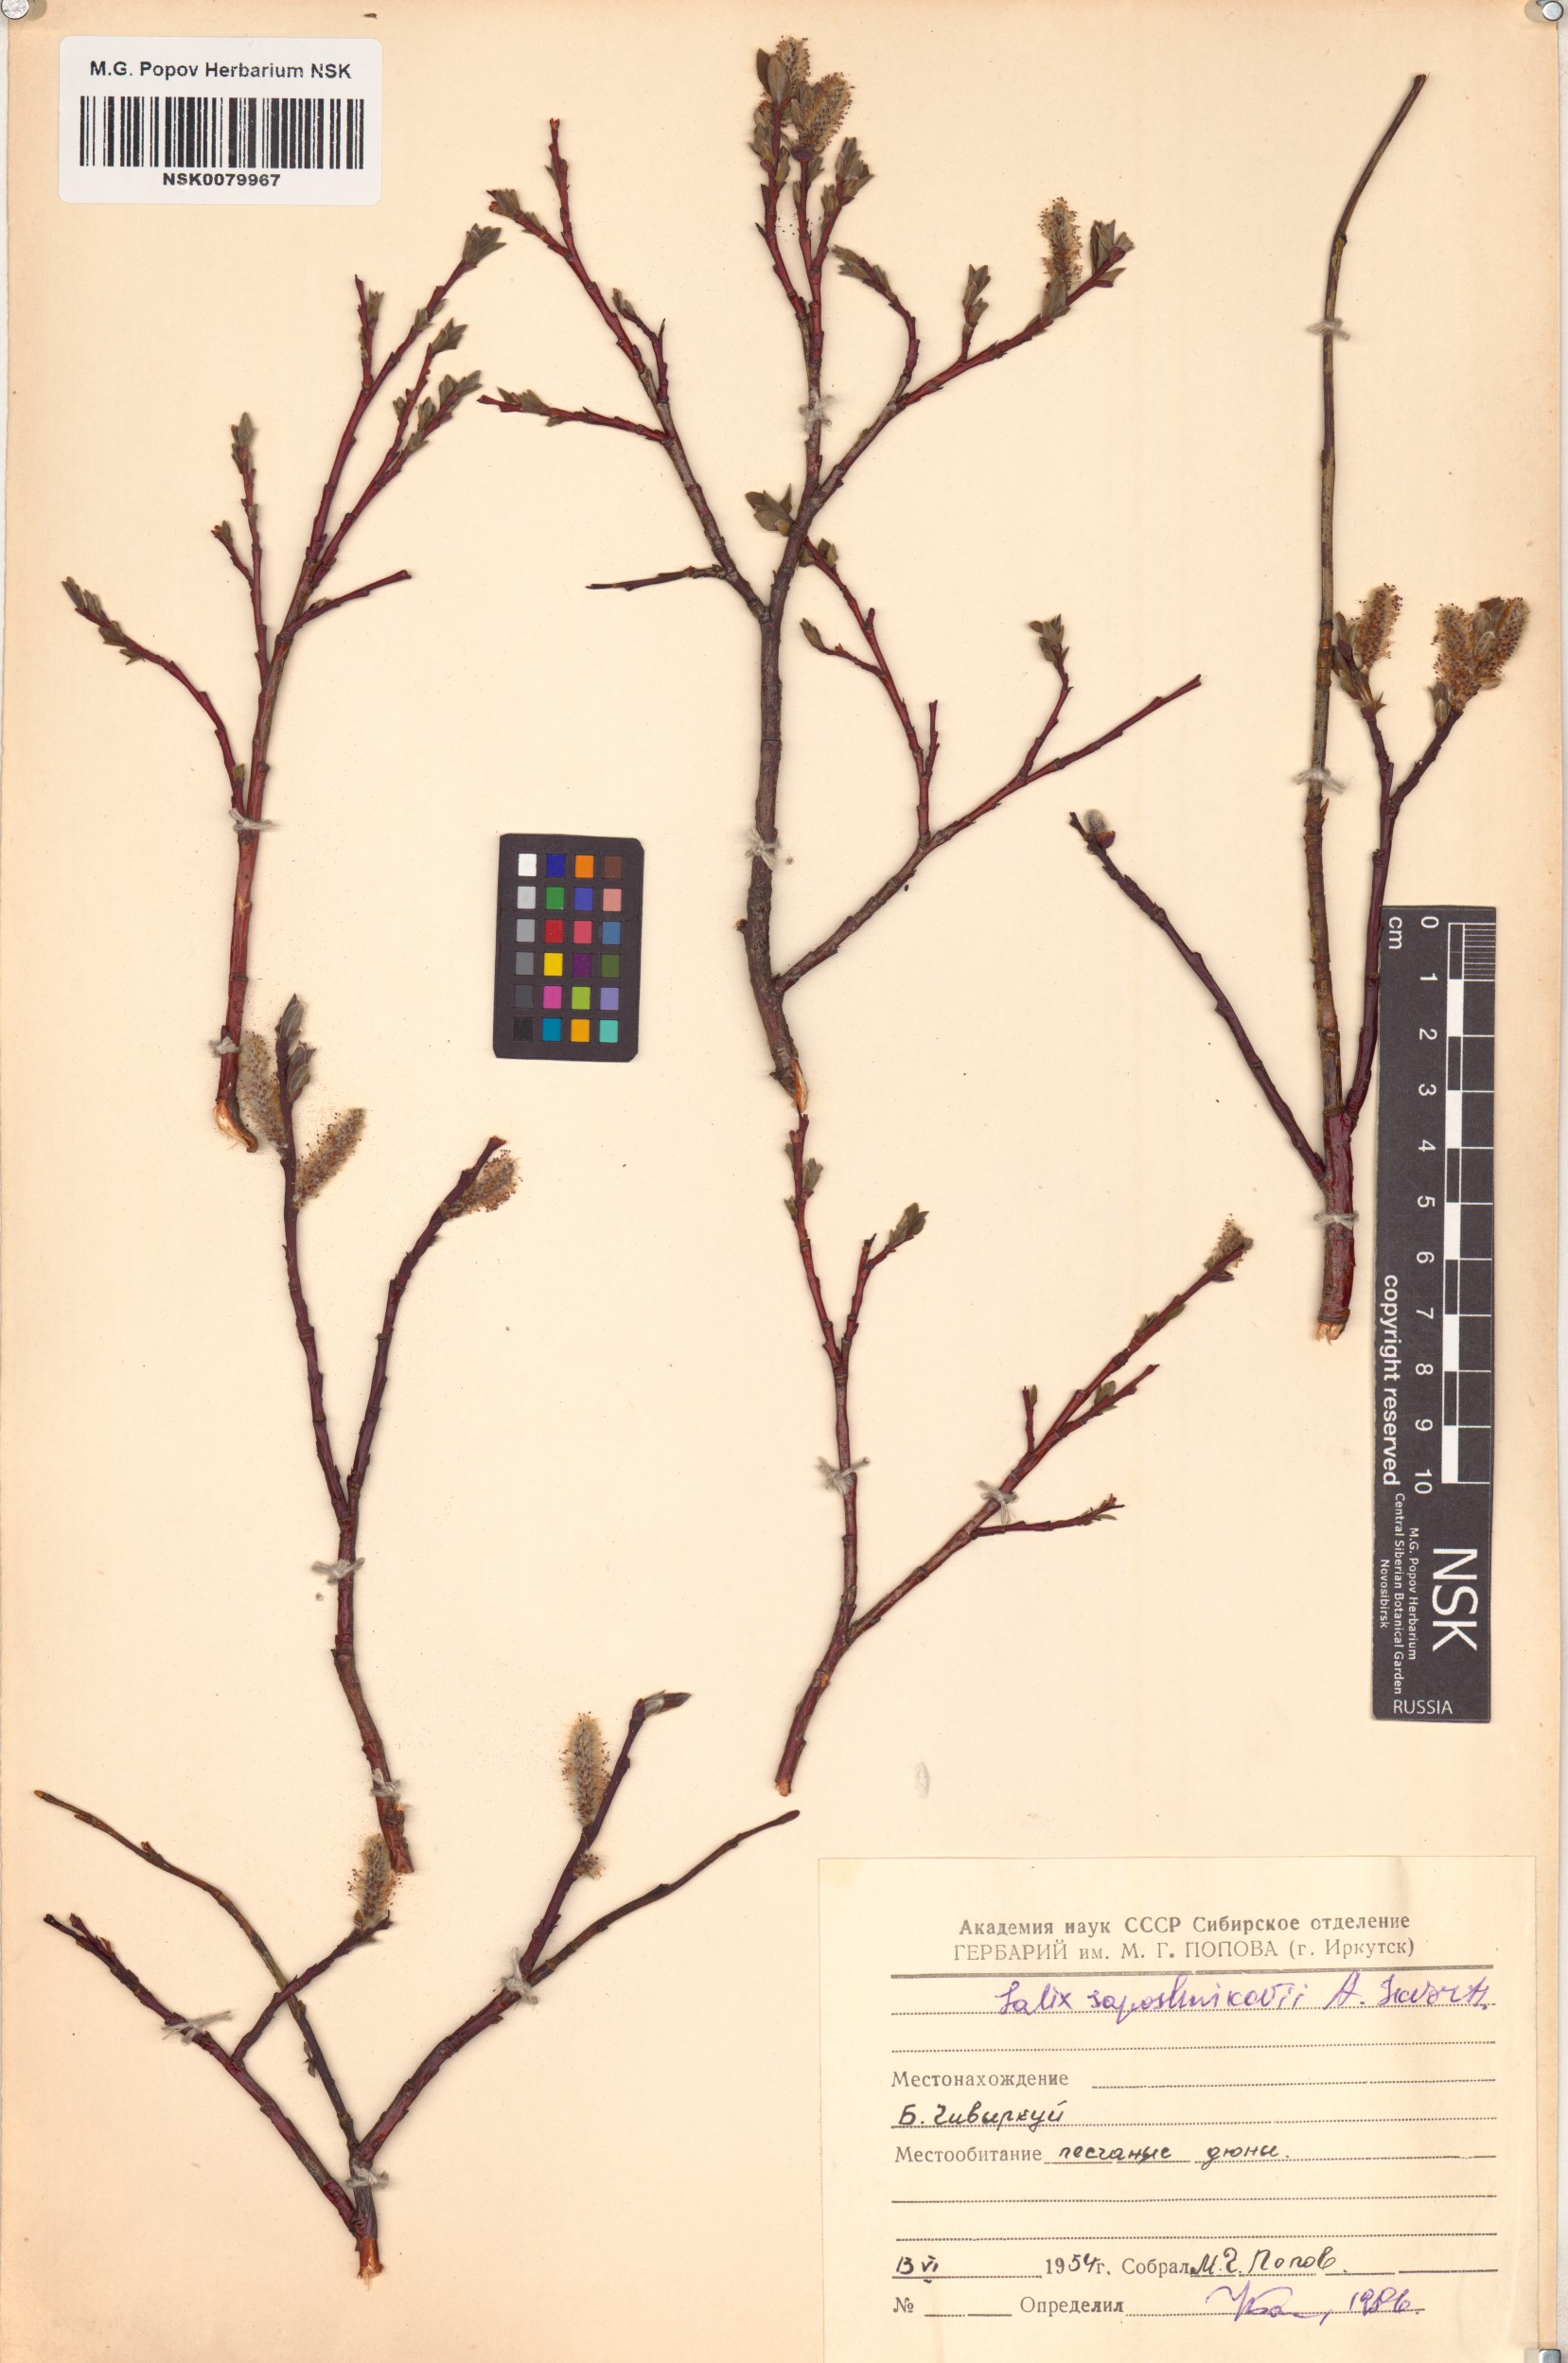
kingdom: Plantae
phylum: Tracheophyta
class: Magnoliopsida
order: Malpighiales
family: Salicaceae
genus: Salix
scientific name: Salix saposhnikovii
